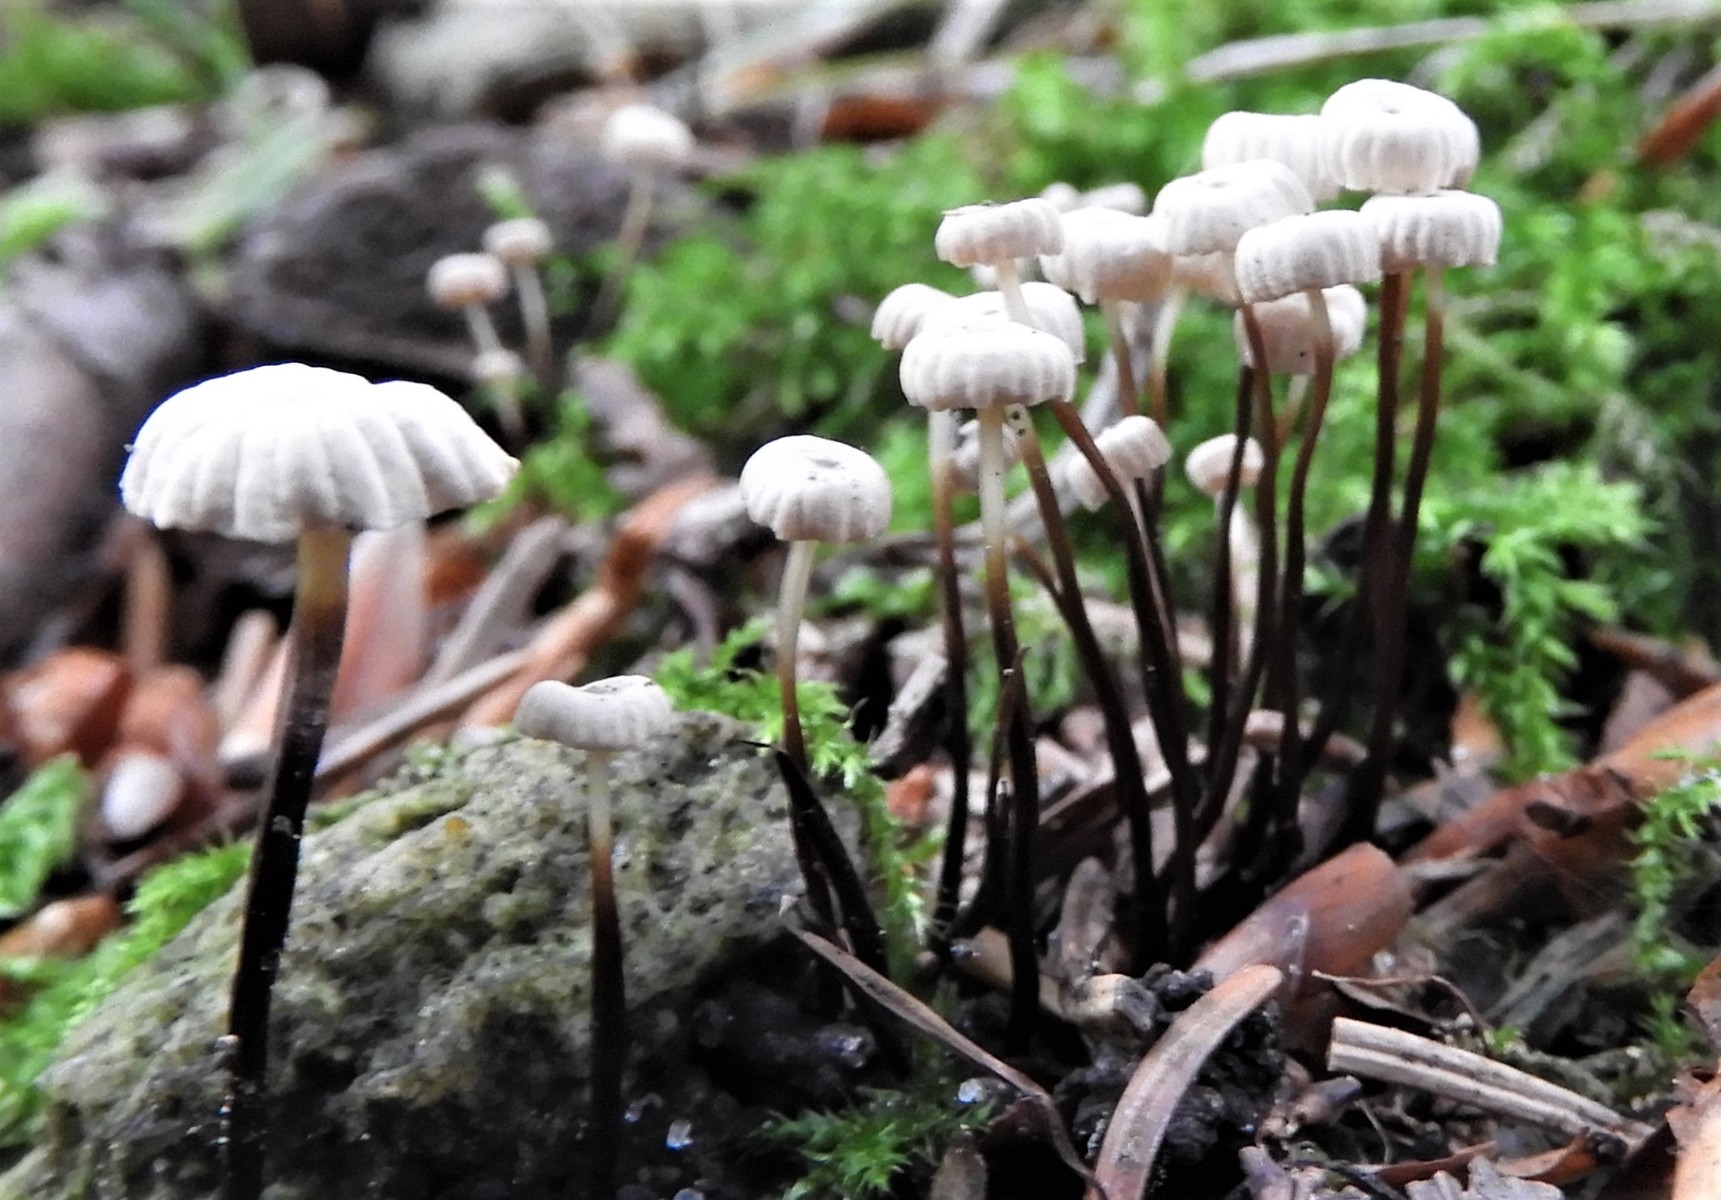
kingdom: Fungi
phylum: Basidiomycota
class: Agaricomycetes
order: Agaricales
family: Marasmiaceae
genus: Marasmius
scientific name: Marasmius rotula
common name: hjul-bruskhat
